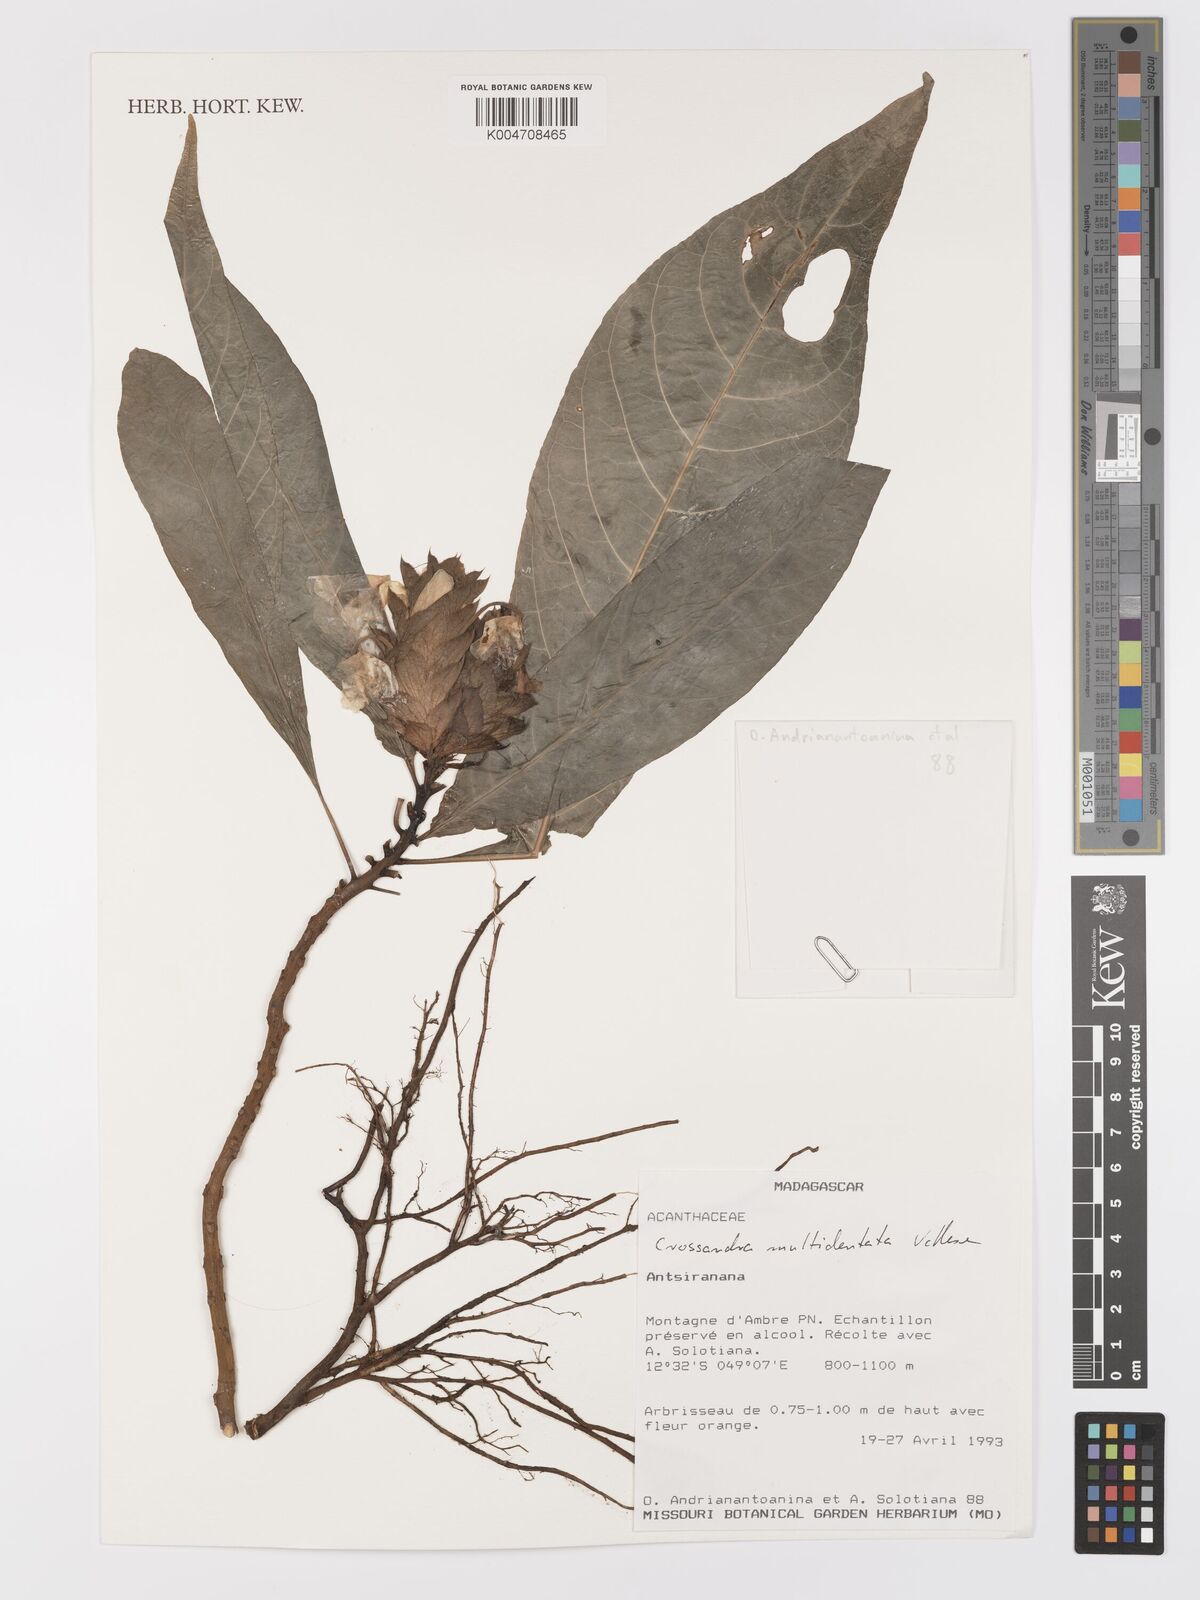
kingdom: Plantae
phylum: Tracheophyta
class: Magnoliopsida
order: Lamiales
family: Acanthaceae
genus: Crossandra
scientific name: Crossandra multidentata
